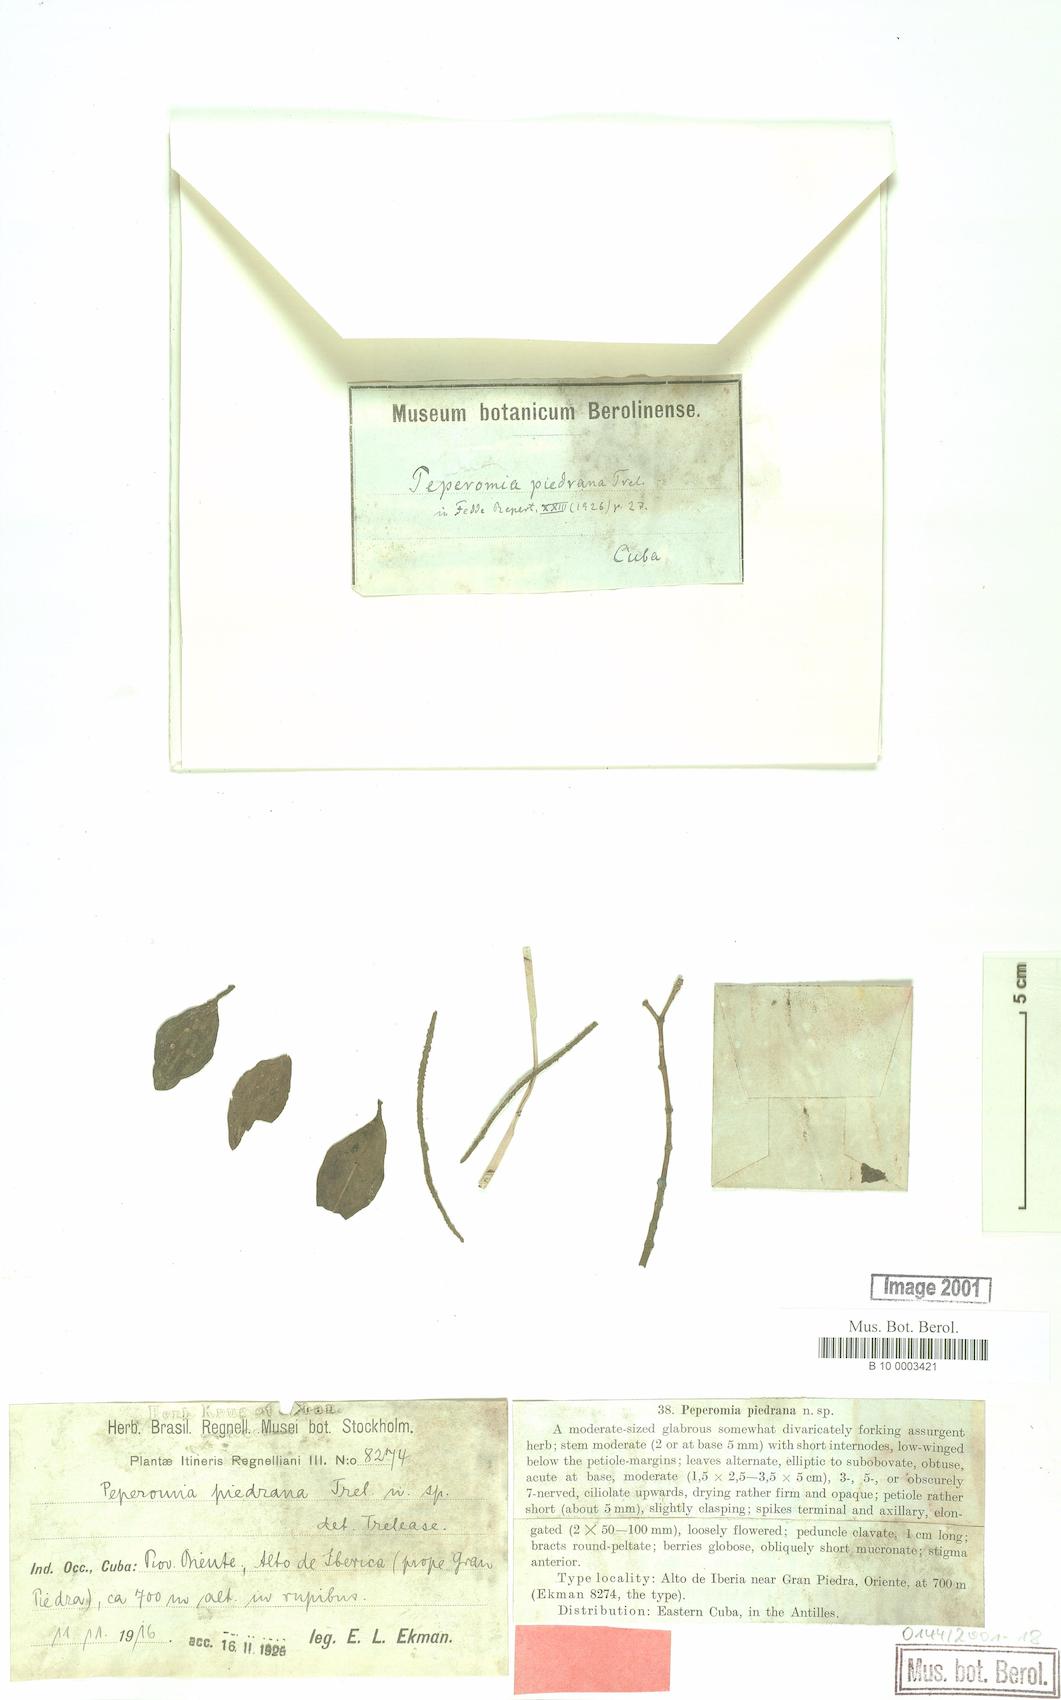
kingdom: Plantae
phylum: Tracheophyta
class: Magnoliopsida
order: Piperales
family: Piperaceae
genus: Peperomia
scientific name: Peperomia guadaloupensis
